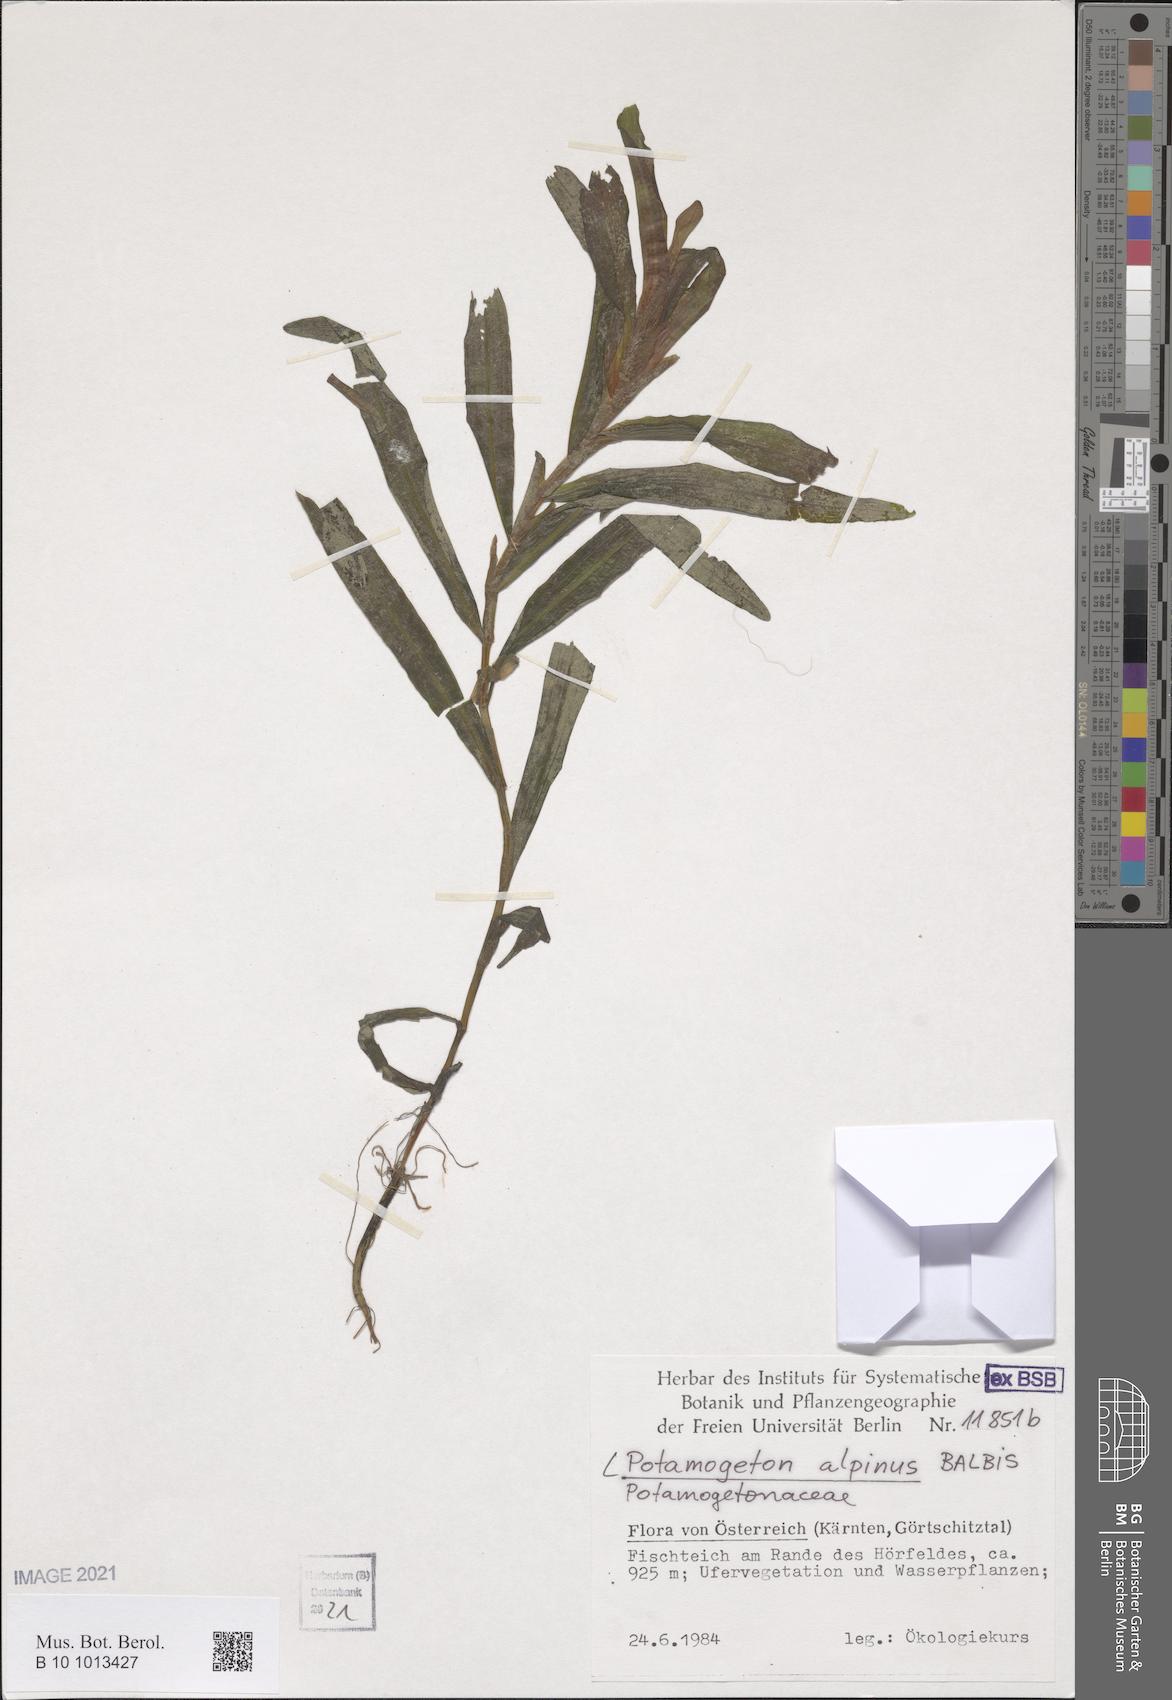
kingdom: Plantae
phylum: Tracheophyta
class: Liliopsida
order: Alismatales
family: Potamogetonaceae
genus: Potamogeton
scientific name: Potamogeton alpinus
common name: Red pondweed
